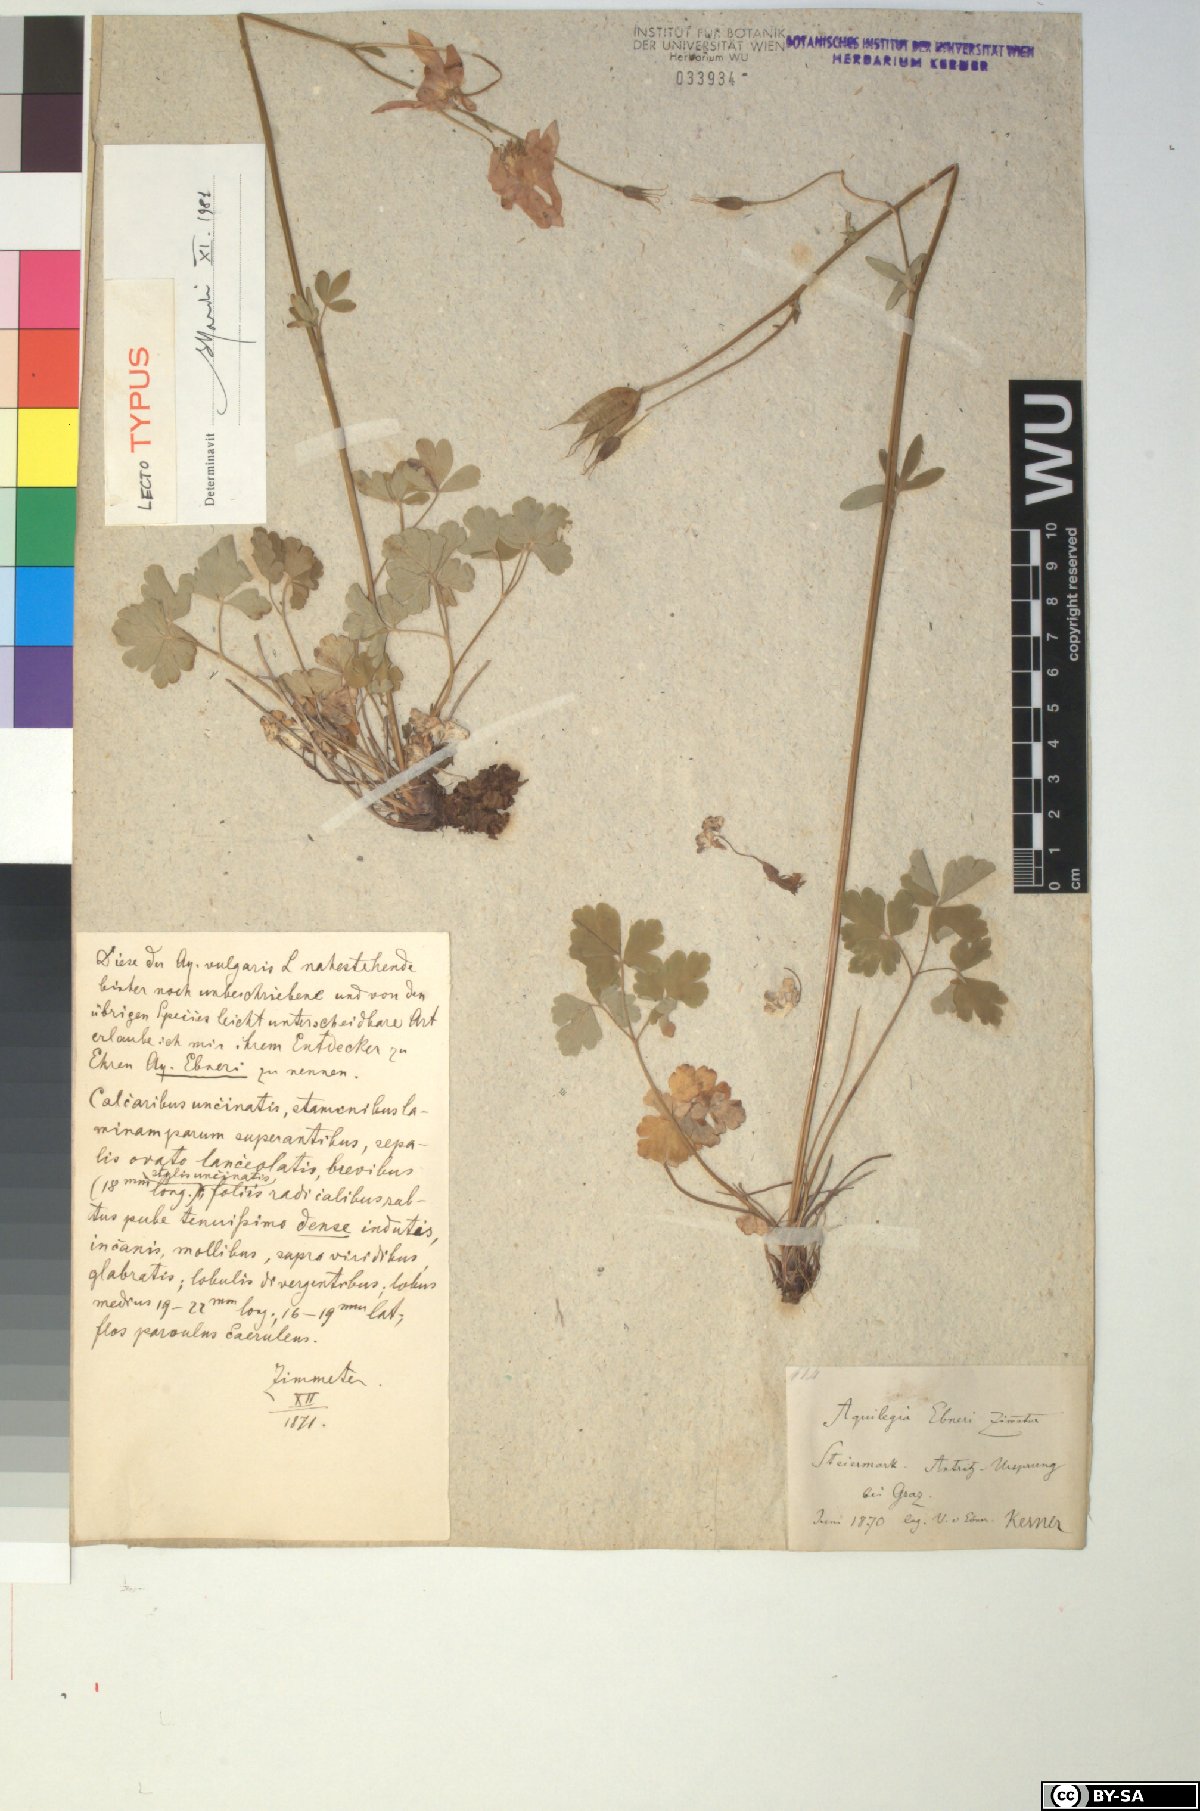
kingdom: Plantae
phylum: Tracheophyta
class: Magnoliopsida
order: Ranunculales
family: Ranunculaceae
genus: Aquilegia
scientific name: Aquilegia vulgaris
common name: Columbine
